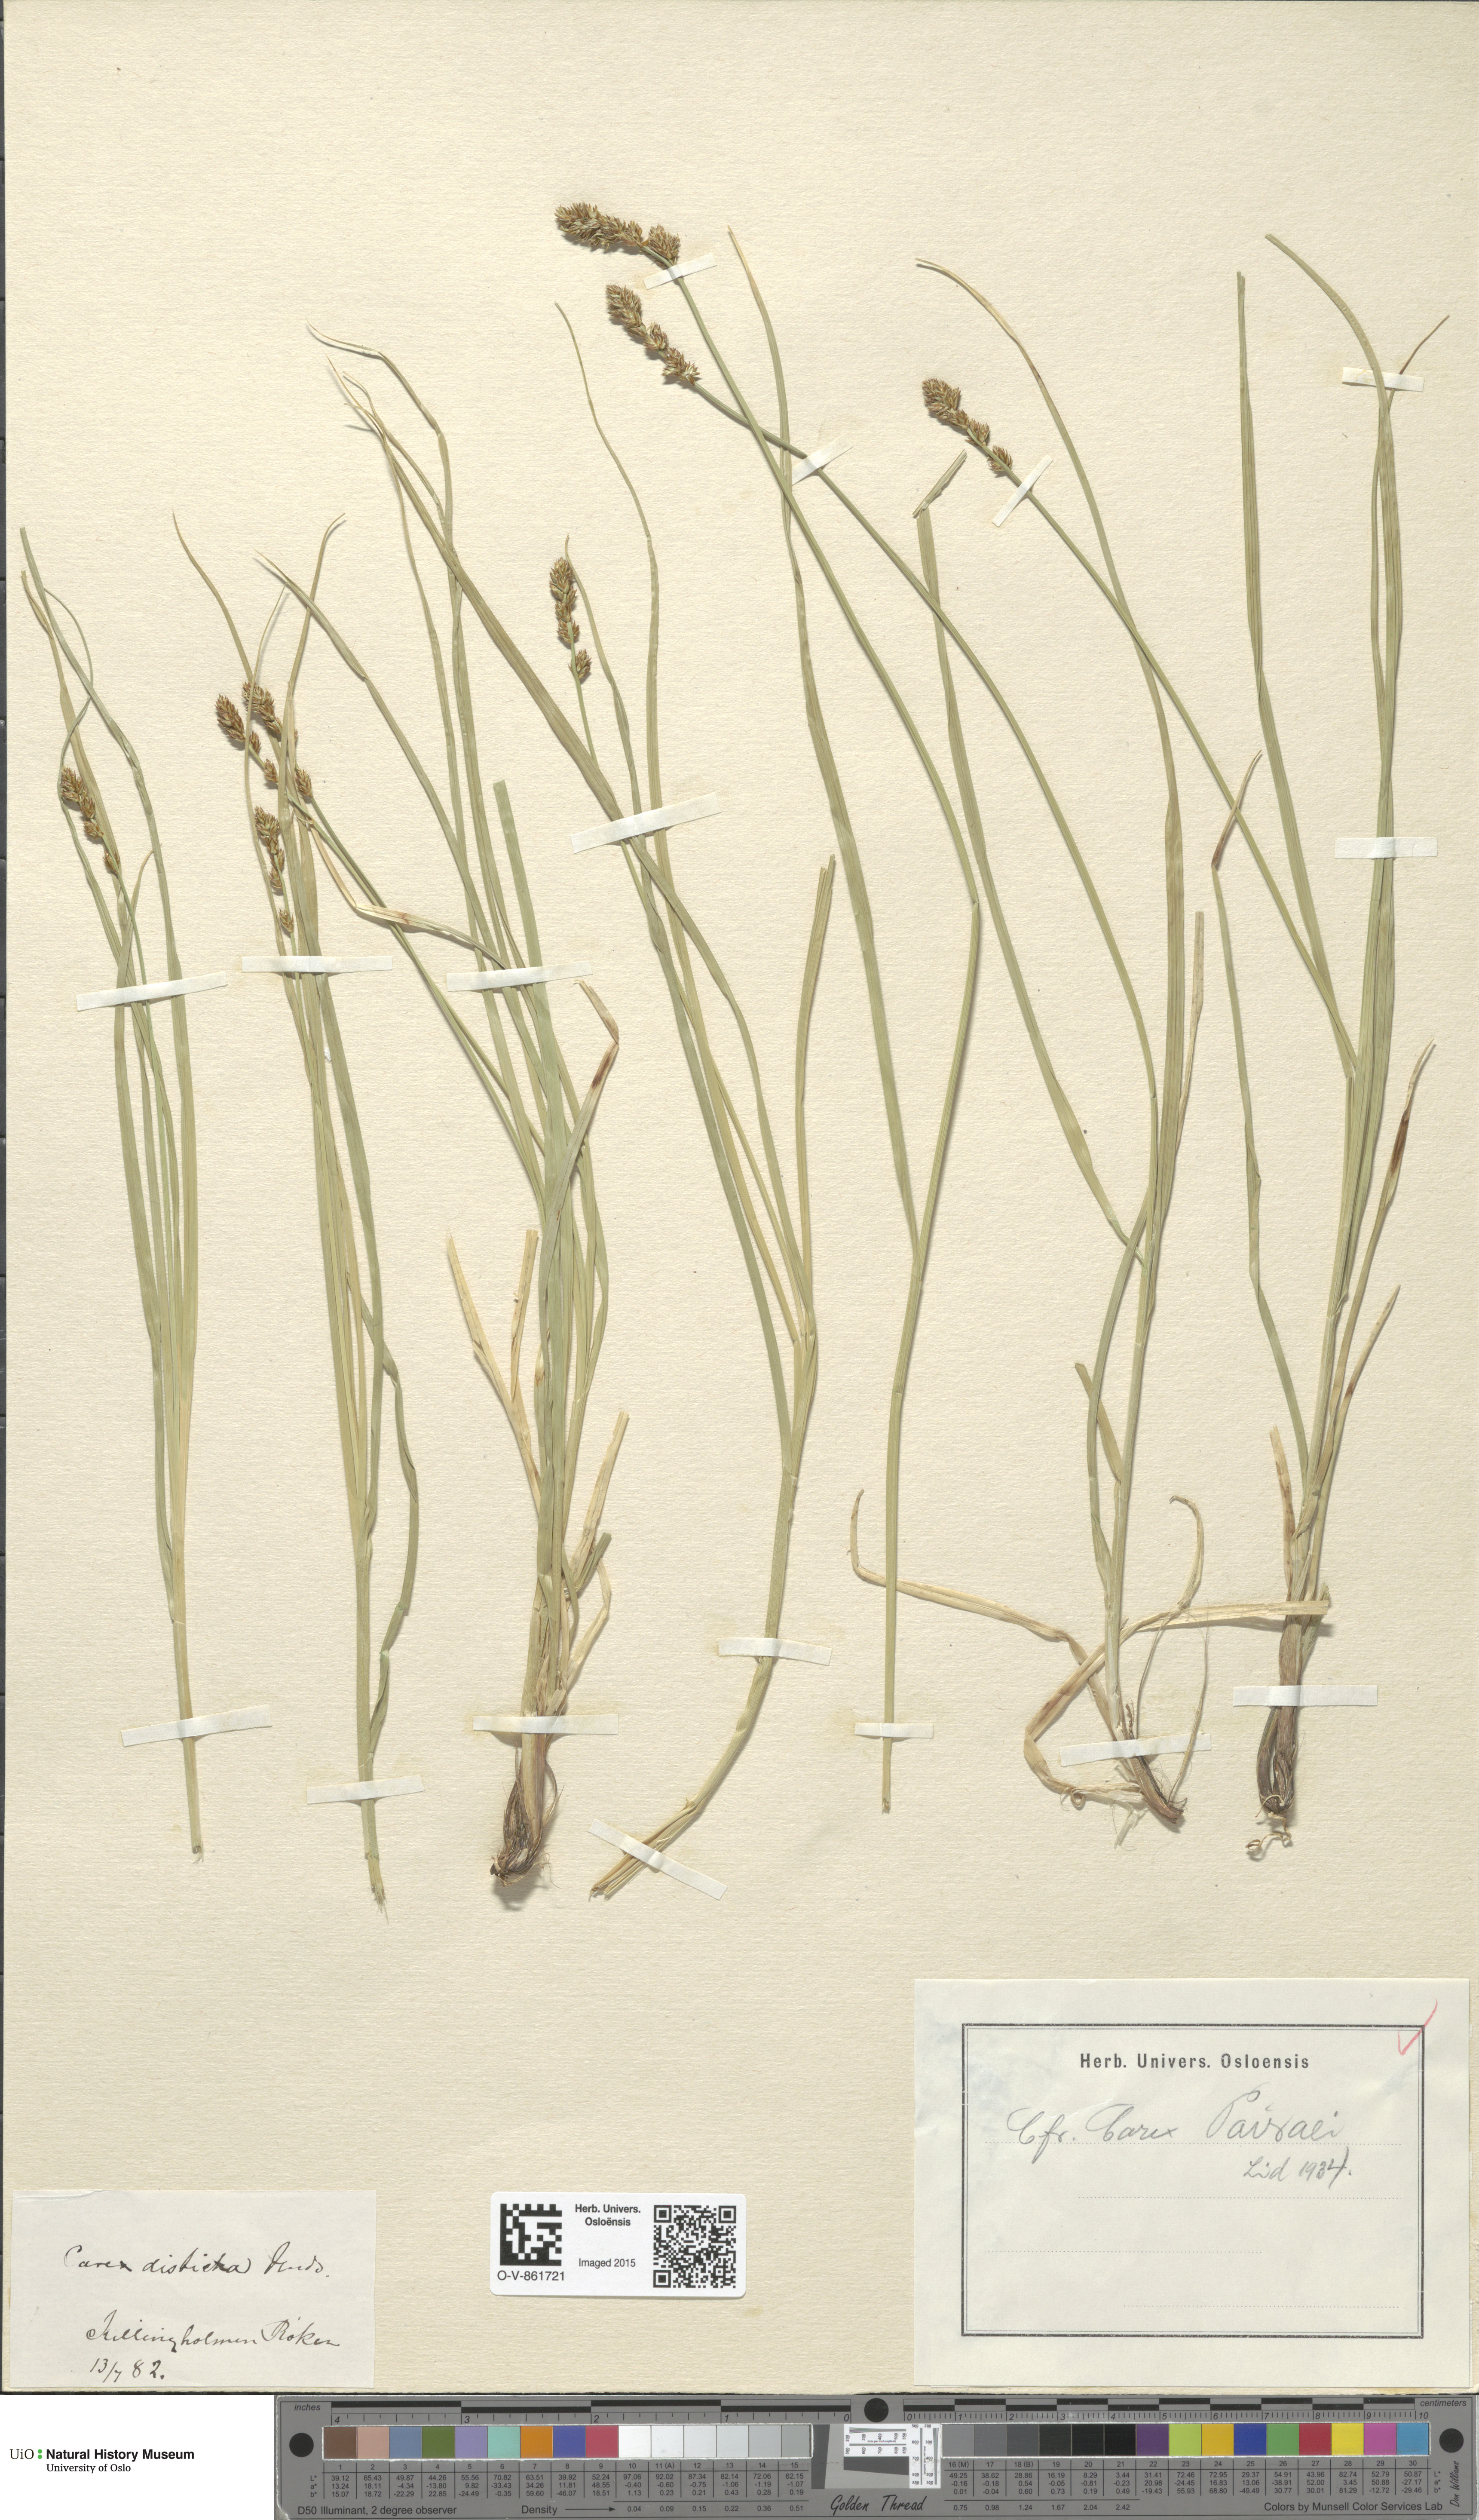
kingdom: Plantae
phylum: Tracheophyta
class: Liliopsida
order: Poales
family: Cyperaceae
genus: Carex
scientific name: Carex pairae
